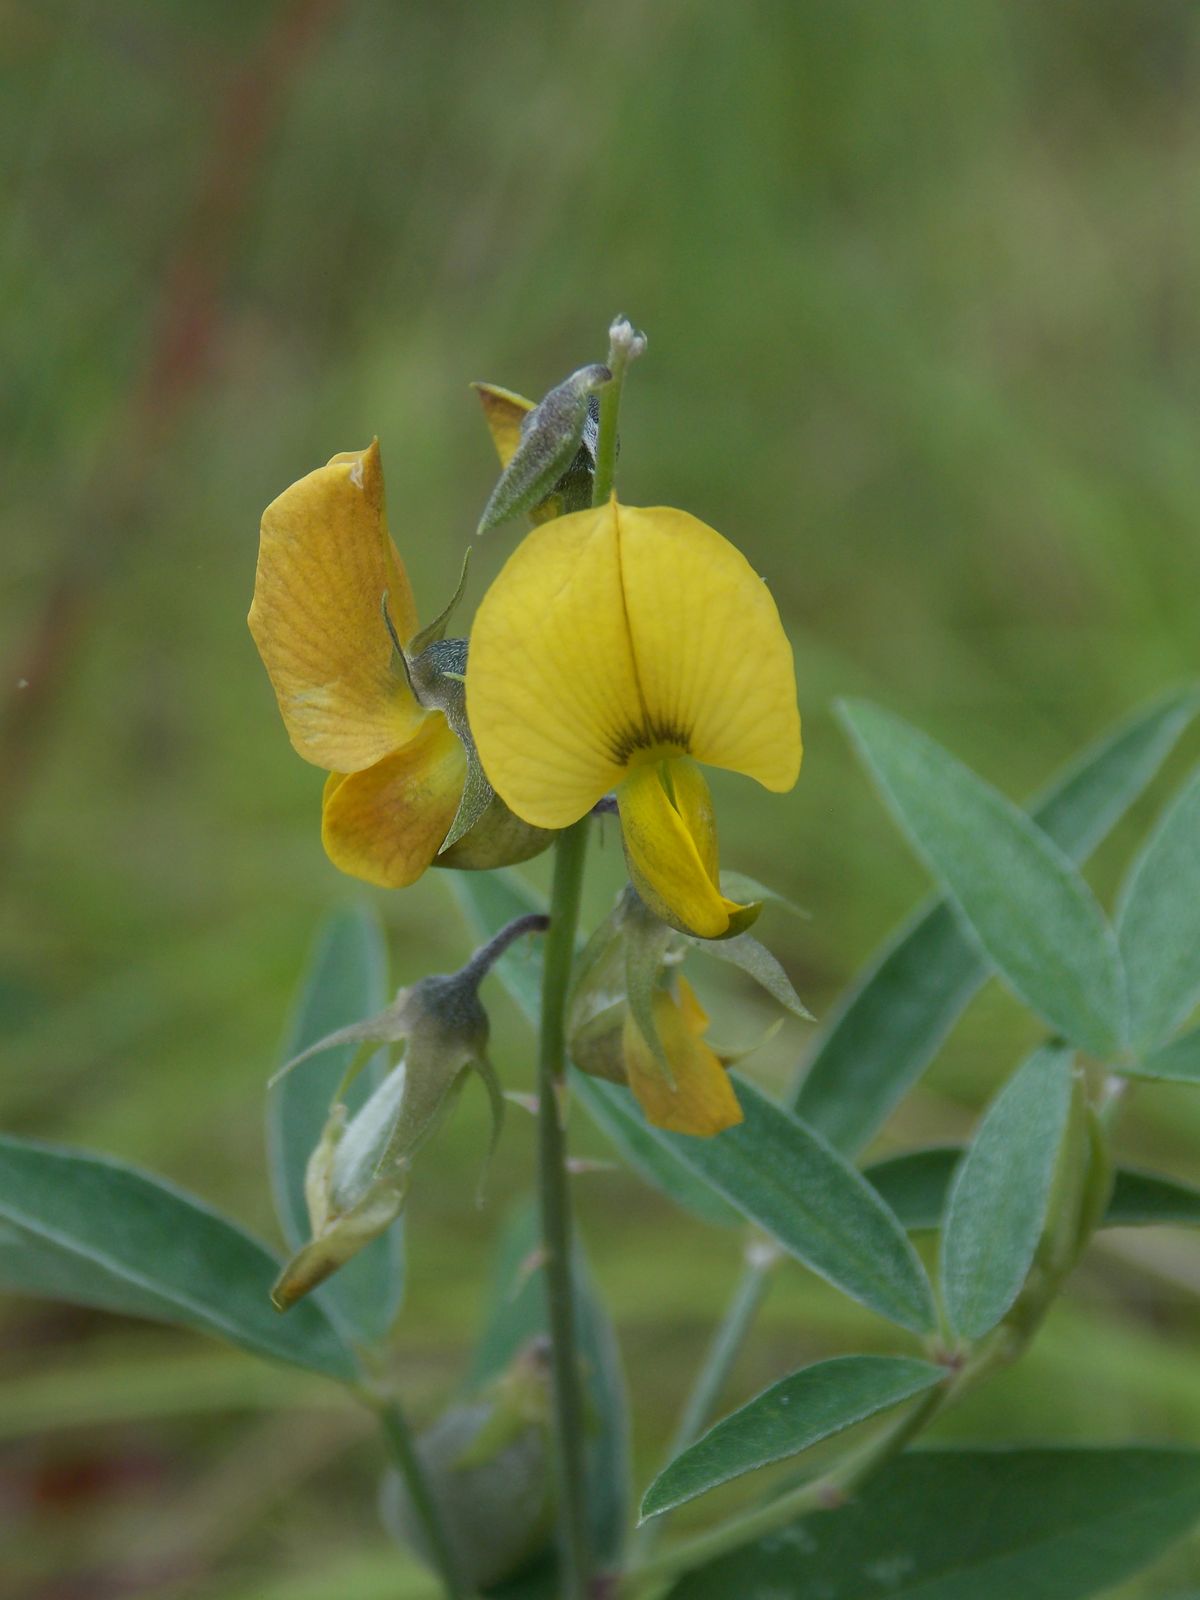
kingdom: Plantae
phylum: Tracheophyta
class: Magnoliopsida
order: Fabales
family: Fabaceae
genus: Crotalaria
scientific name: Crotalaria
